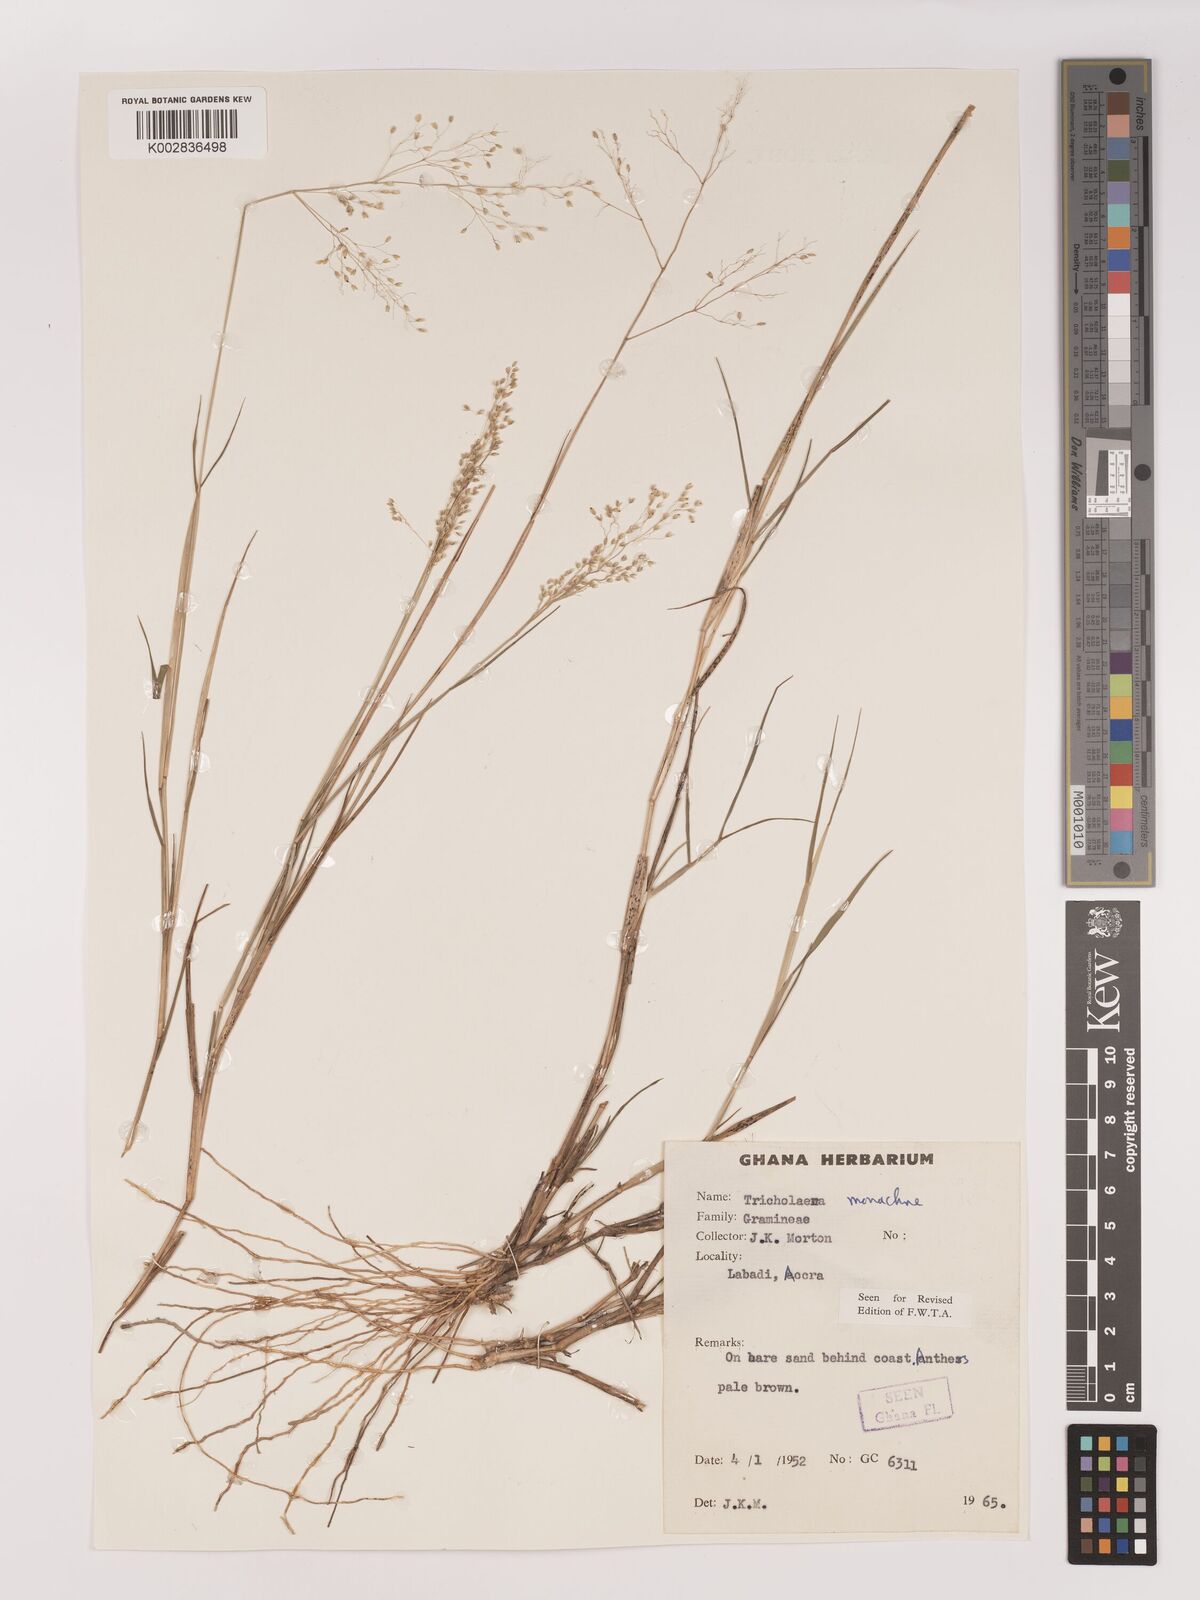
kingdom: Plantae
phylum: Tracheophyta
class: Liliopsida
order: Poales
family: Poaceae
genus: Tricholaena
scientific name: Tricholaena monachne
